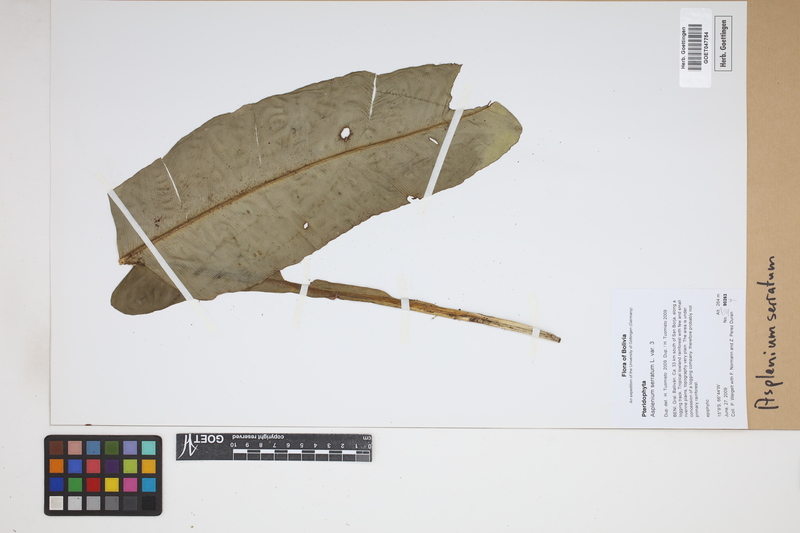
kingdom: Plantae
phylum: Tracheophyta
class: Polypodiopsida
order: Polypodiales
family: Aspleniaceae
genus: Asplenium
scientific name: Asplenium serratum
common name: Wild birdnest fern
